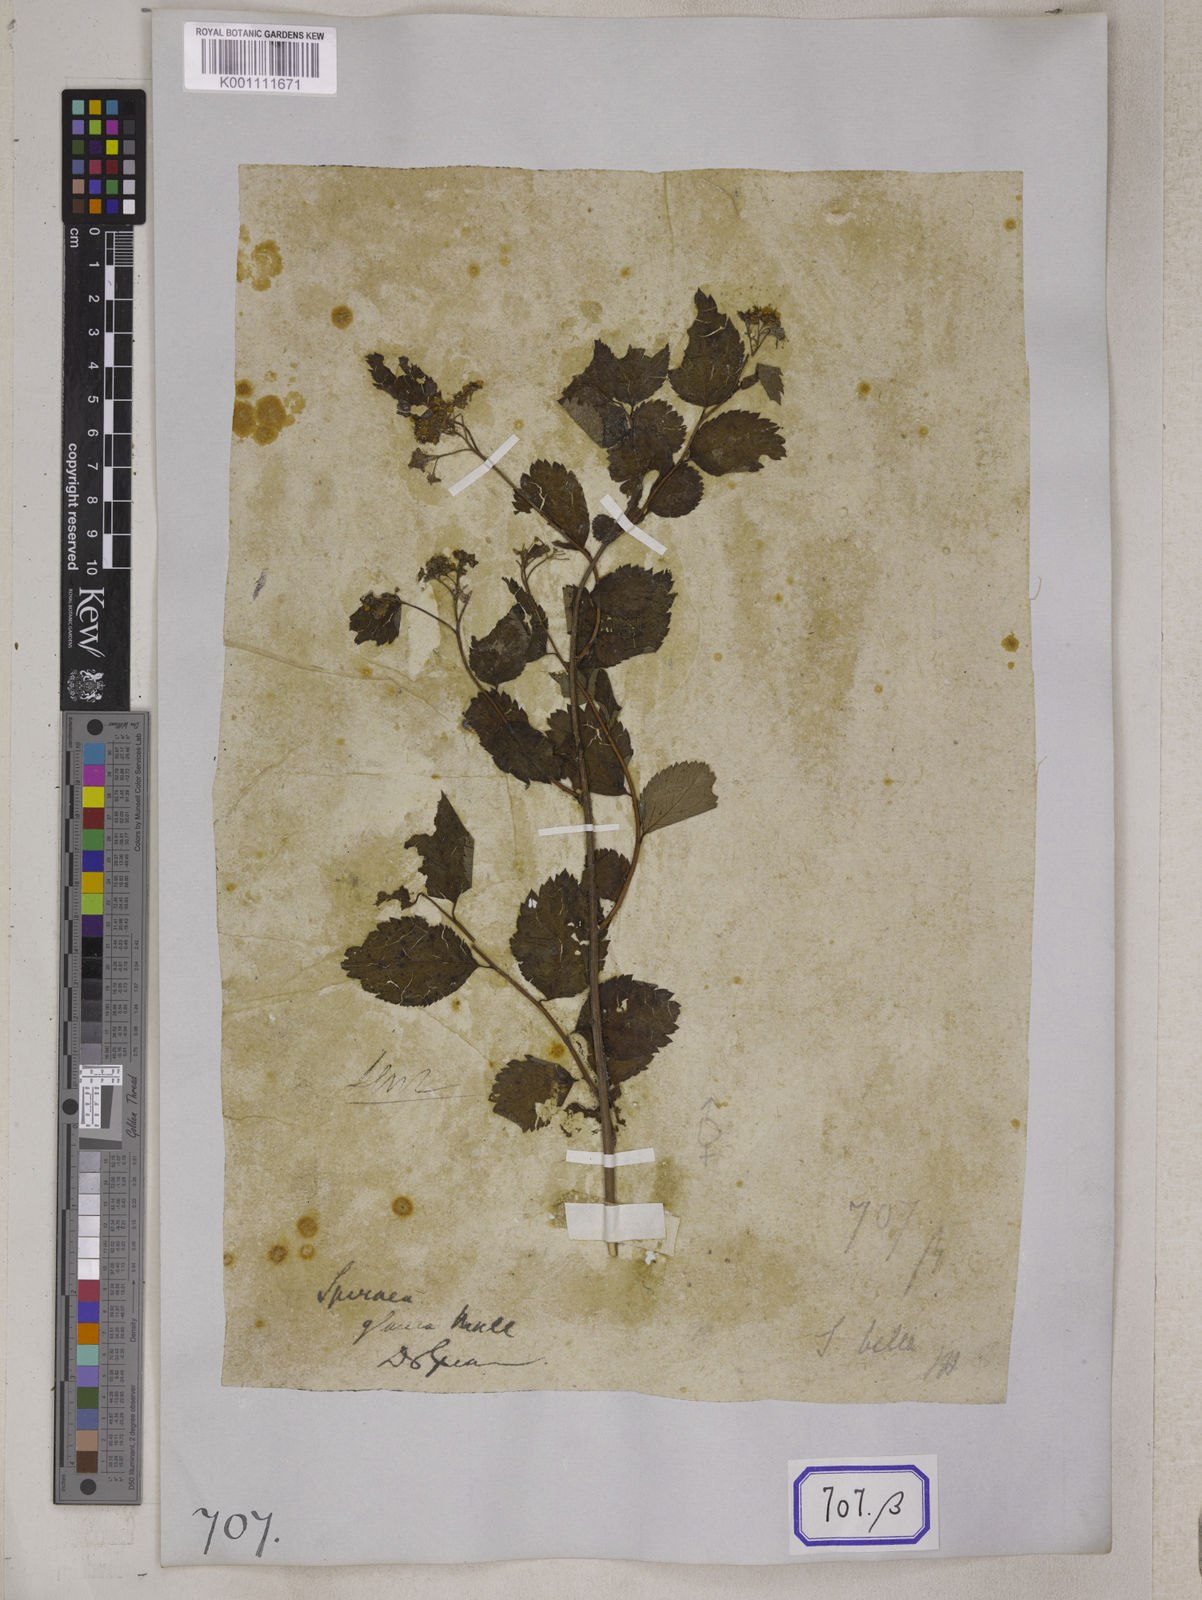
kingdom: Plantae
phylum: Tracheophyta
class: Magnoliopsida
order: Rosales
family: Rosaceae
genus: Spiraea
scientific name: Spiraea bella
